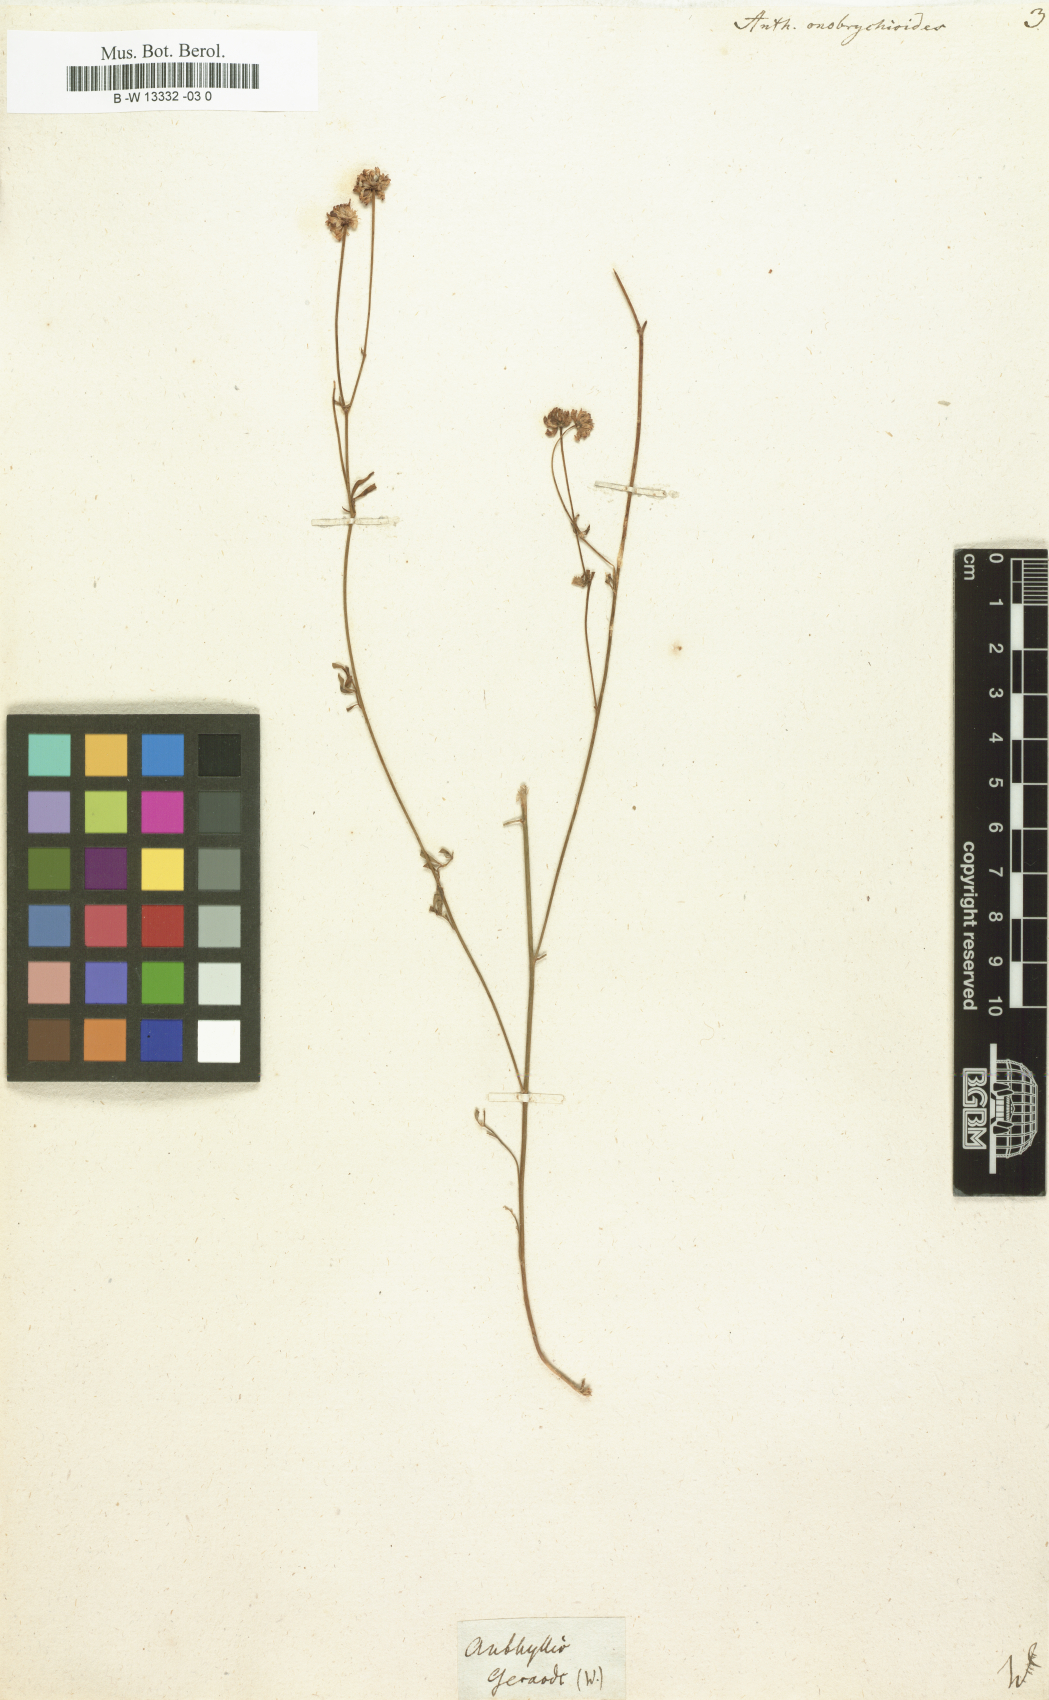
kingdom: Plantae
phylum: Tracheophyta
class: Magnoliopsida
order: Fabales
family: Fabaceae
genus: Anthyllis
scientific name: Anthyllis onobrychioides
